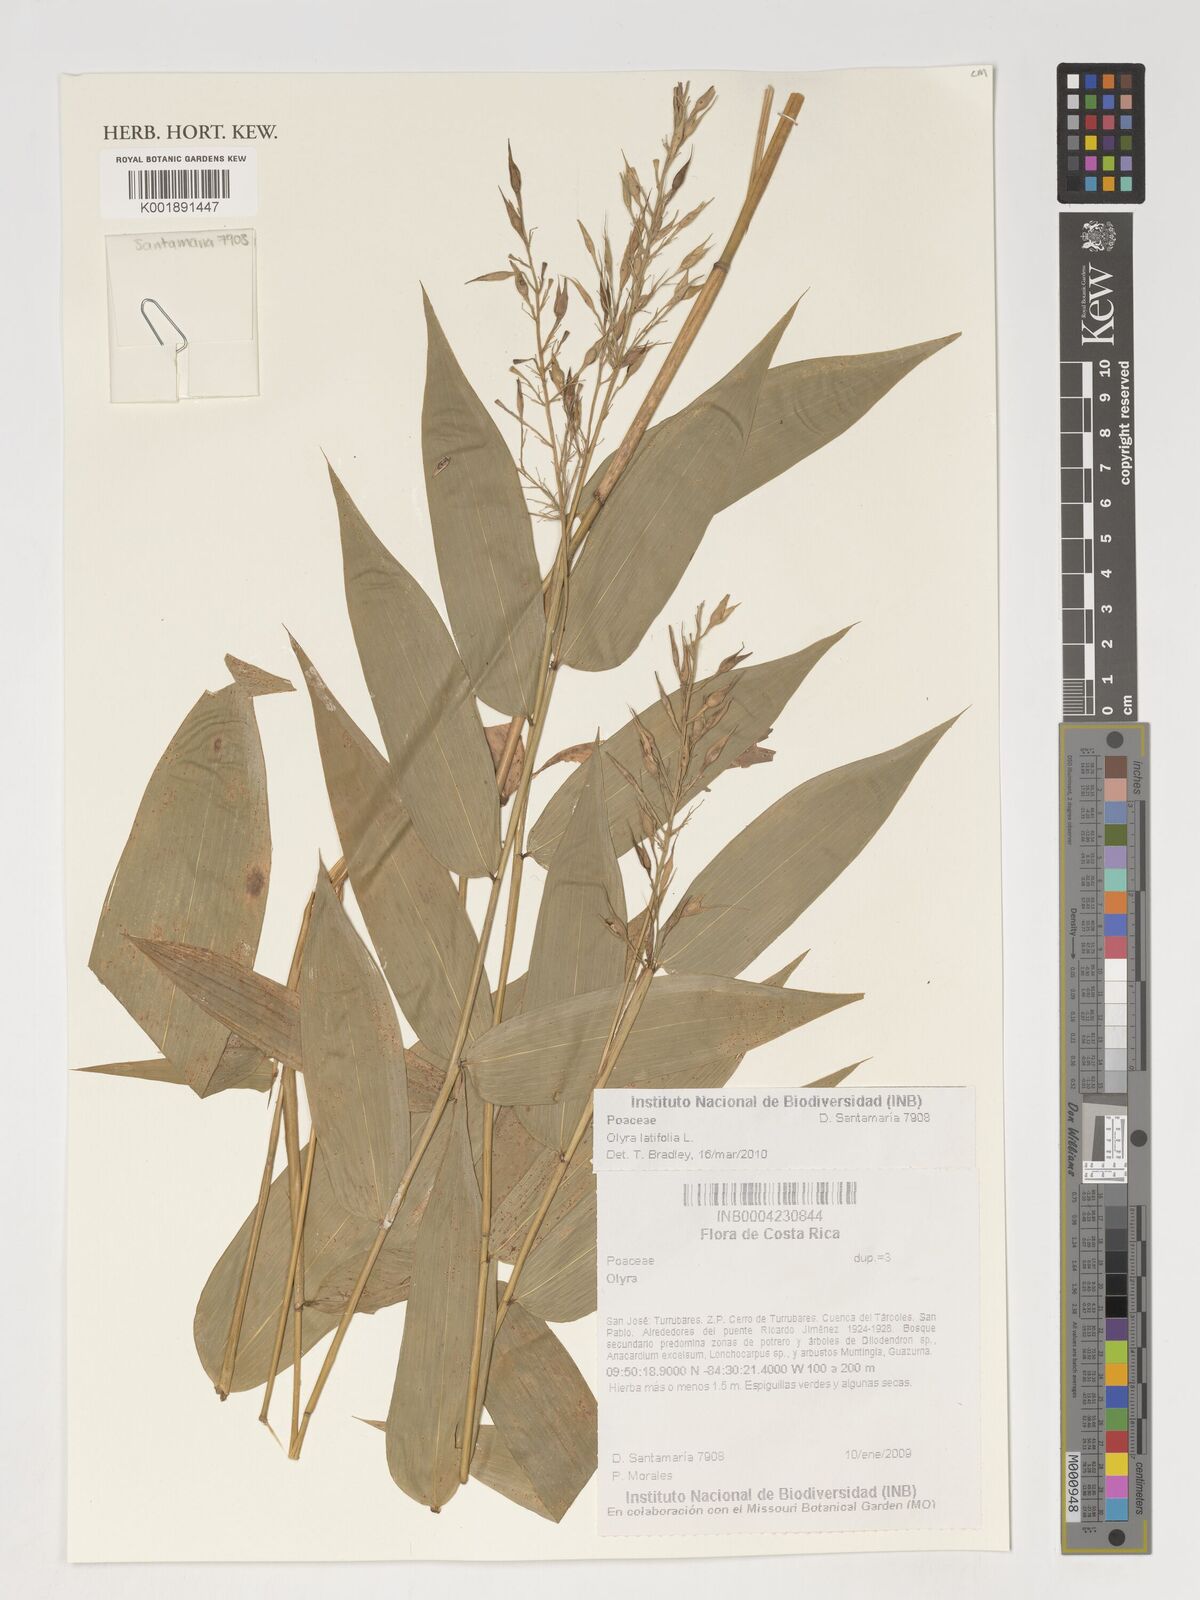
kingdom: Plantae
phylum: Tracheophyta
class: Liliopsida
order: Poales
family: Poaceae
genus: Olyra
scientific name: Olyra latifolia
